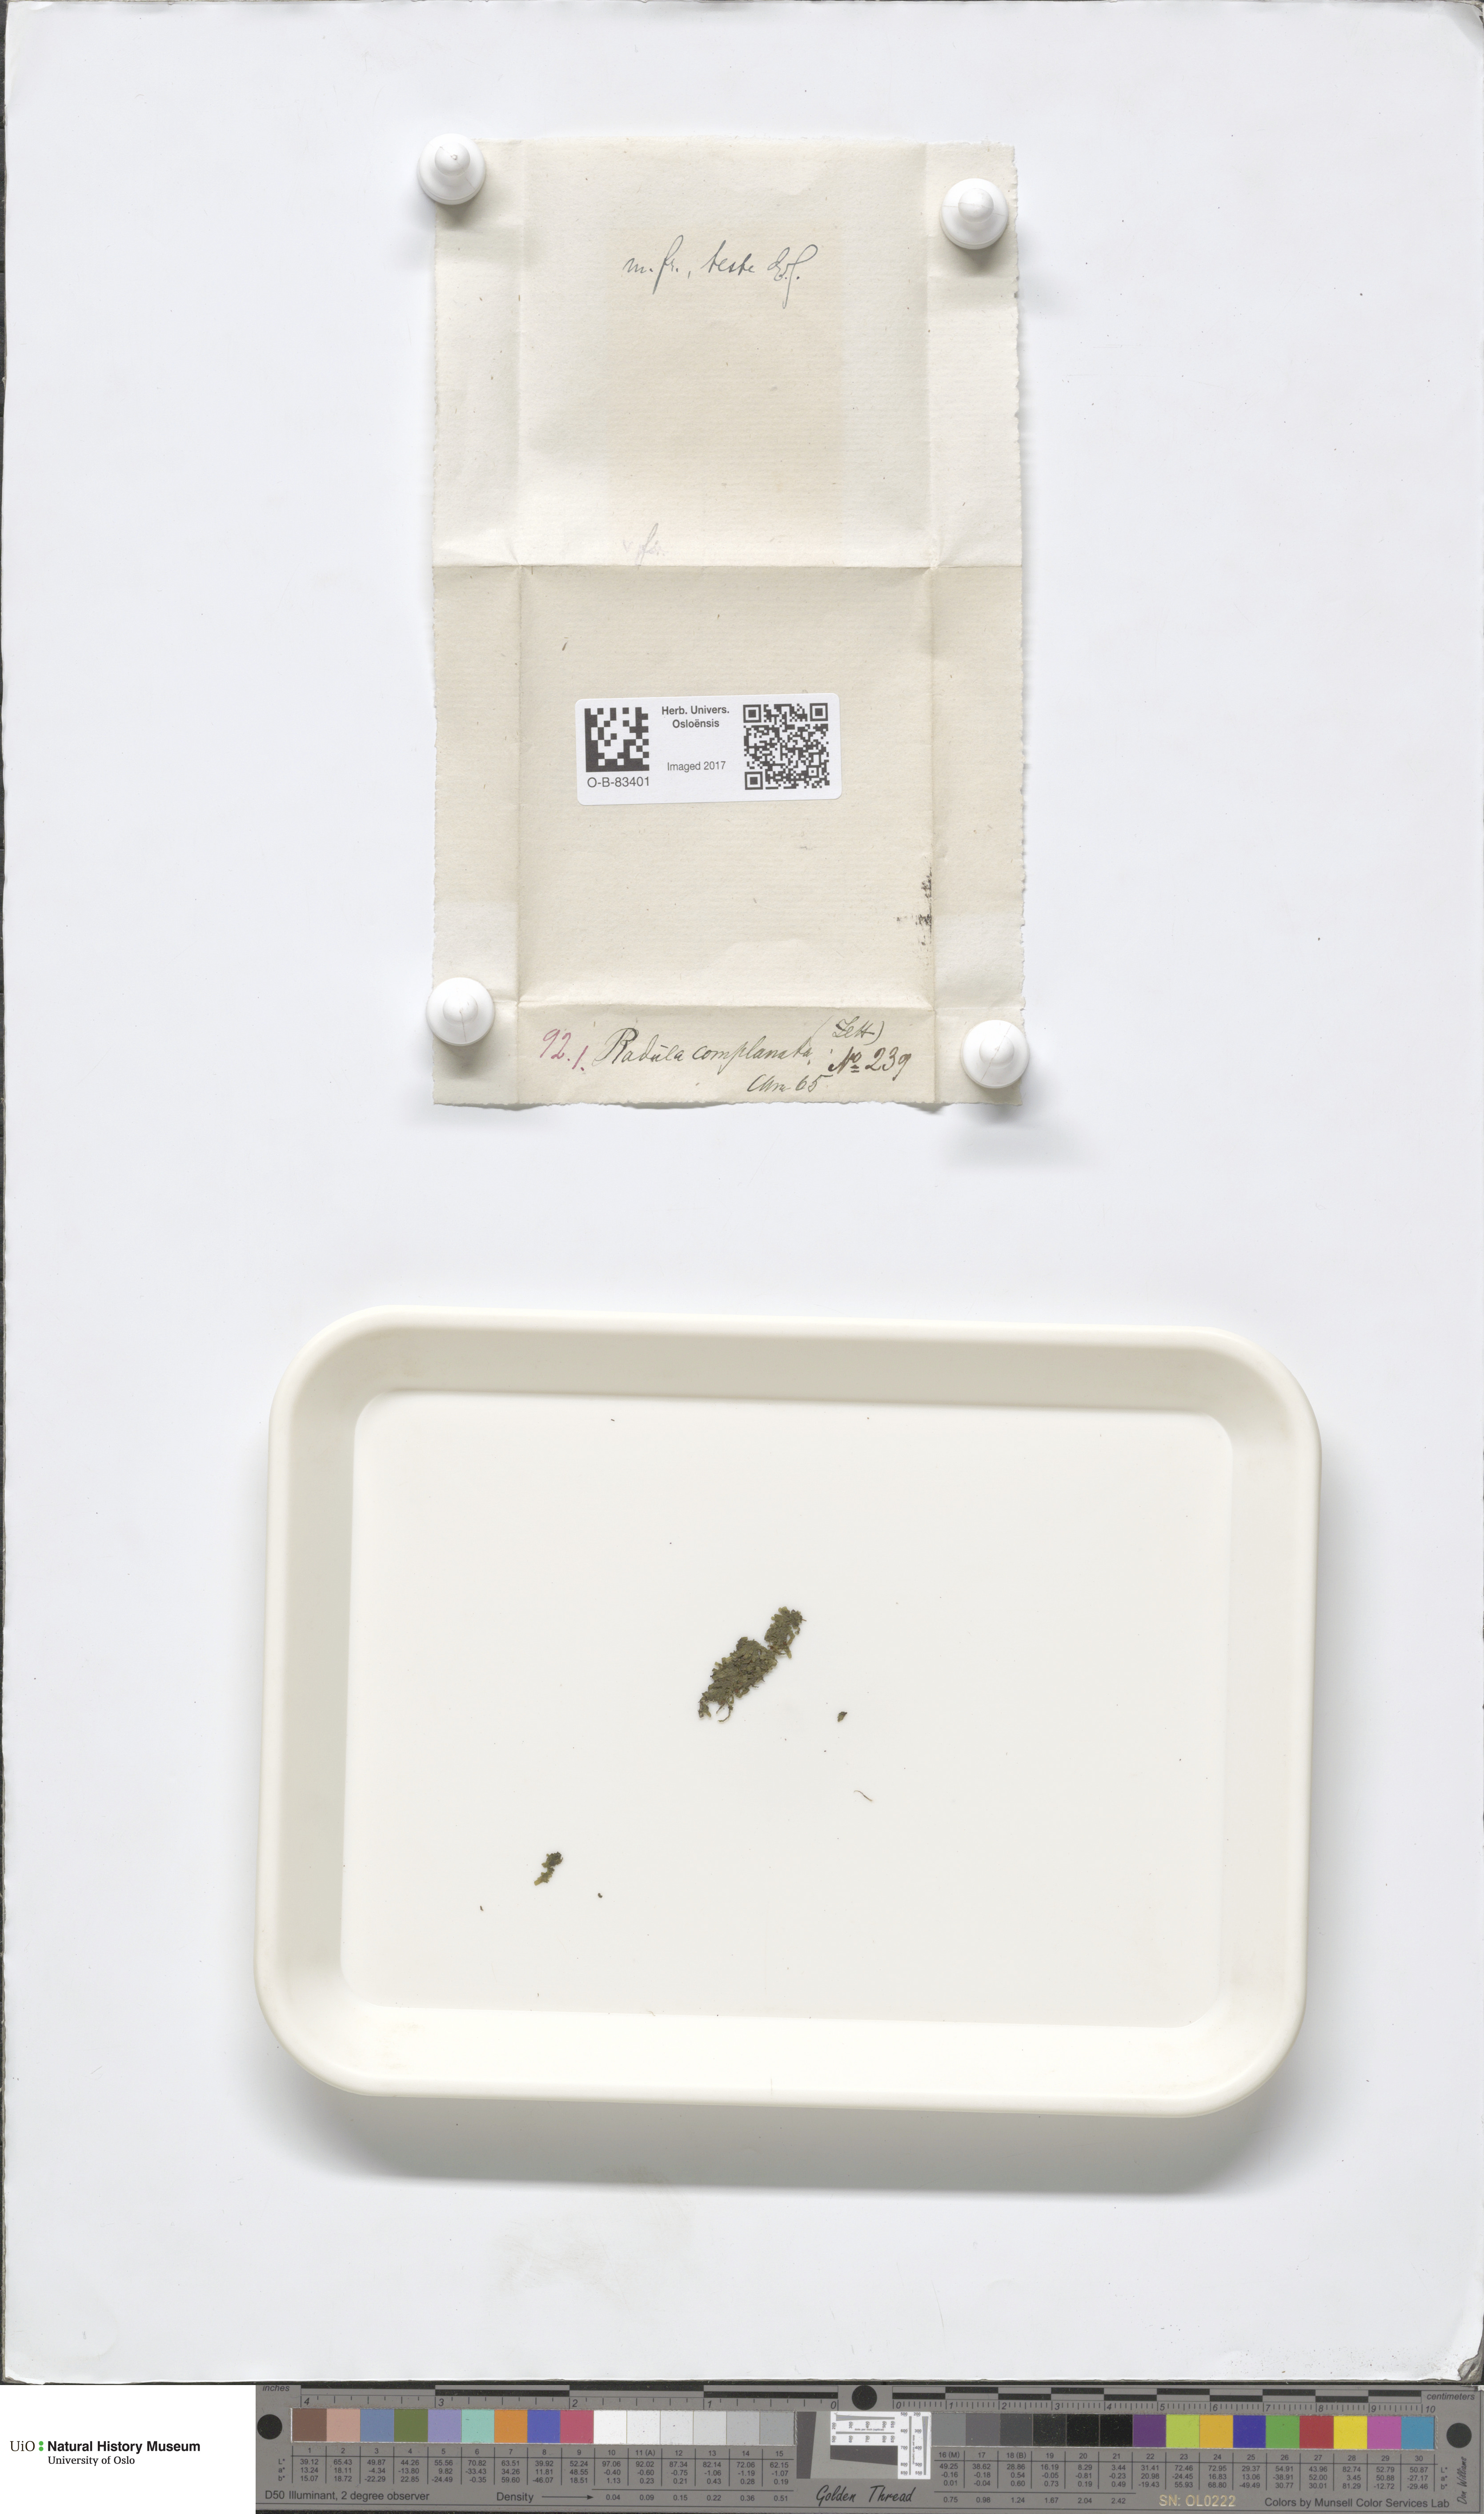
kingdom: Plantae
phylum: Marchantiophyta
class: Jungermanniopsida
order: Porellales
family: Radulaceae
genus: Radula
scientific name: Radula complanata
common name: Flat-leaved scalewort
